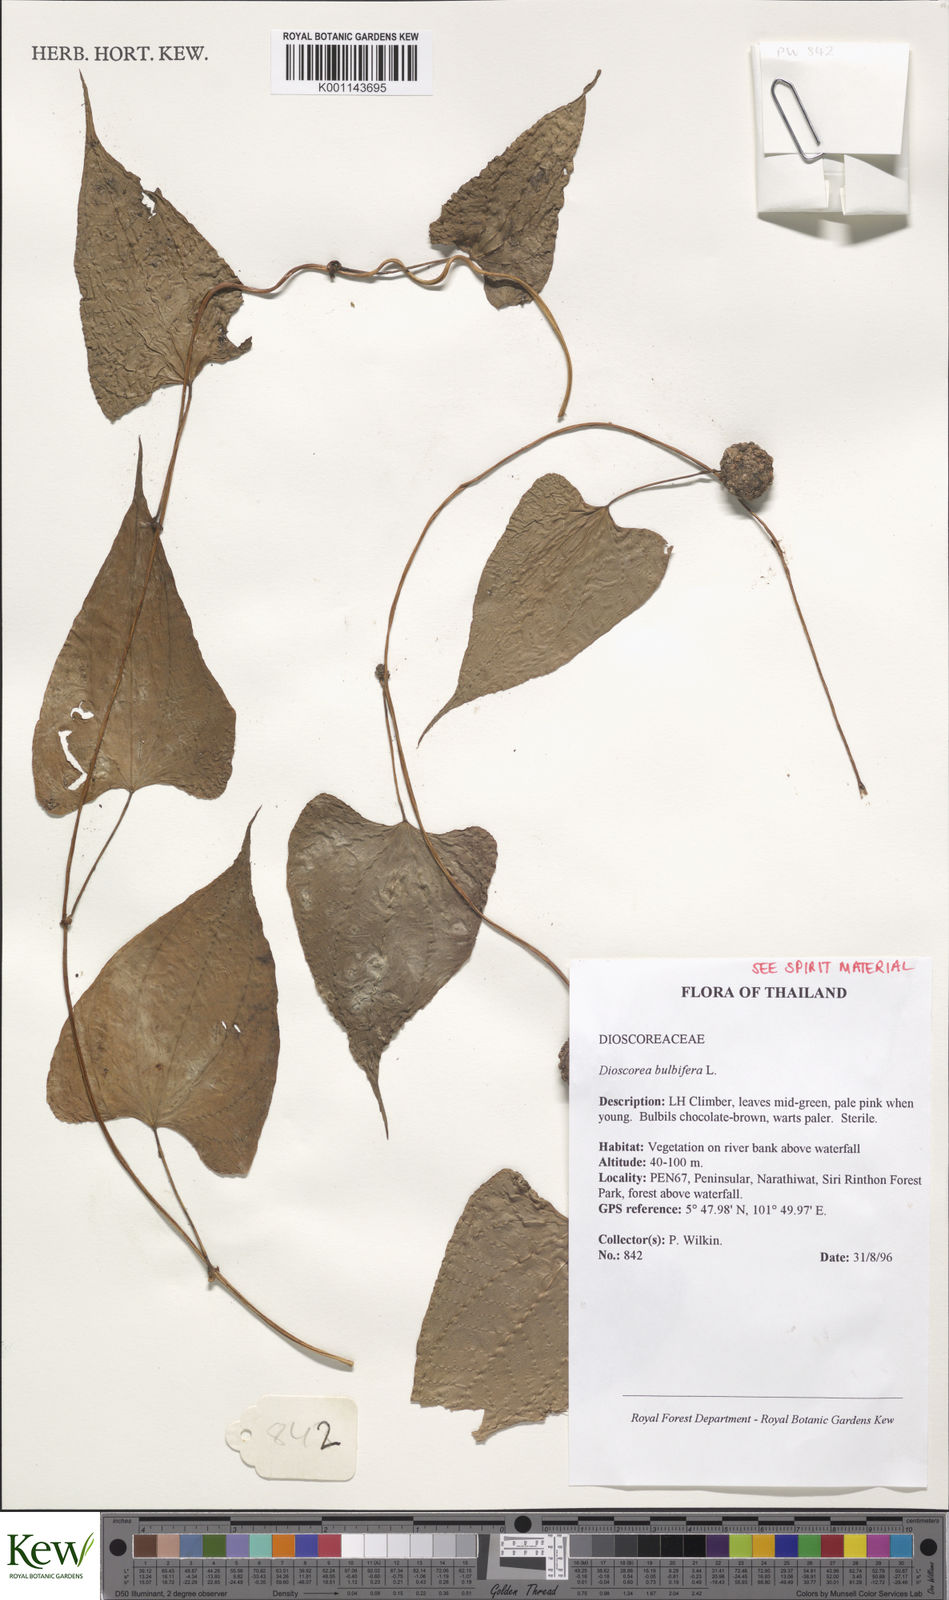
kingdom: Plantae
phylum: Tracheophyta
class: Liliopsida
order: Dioscoreales
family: Dioscoreaceae
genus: Dioscorea
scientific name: Dioscorea bulbifera
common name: Air yam
